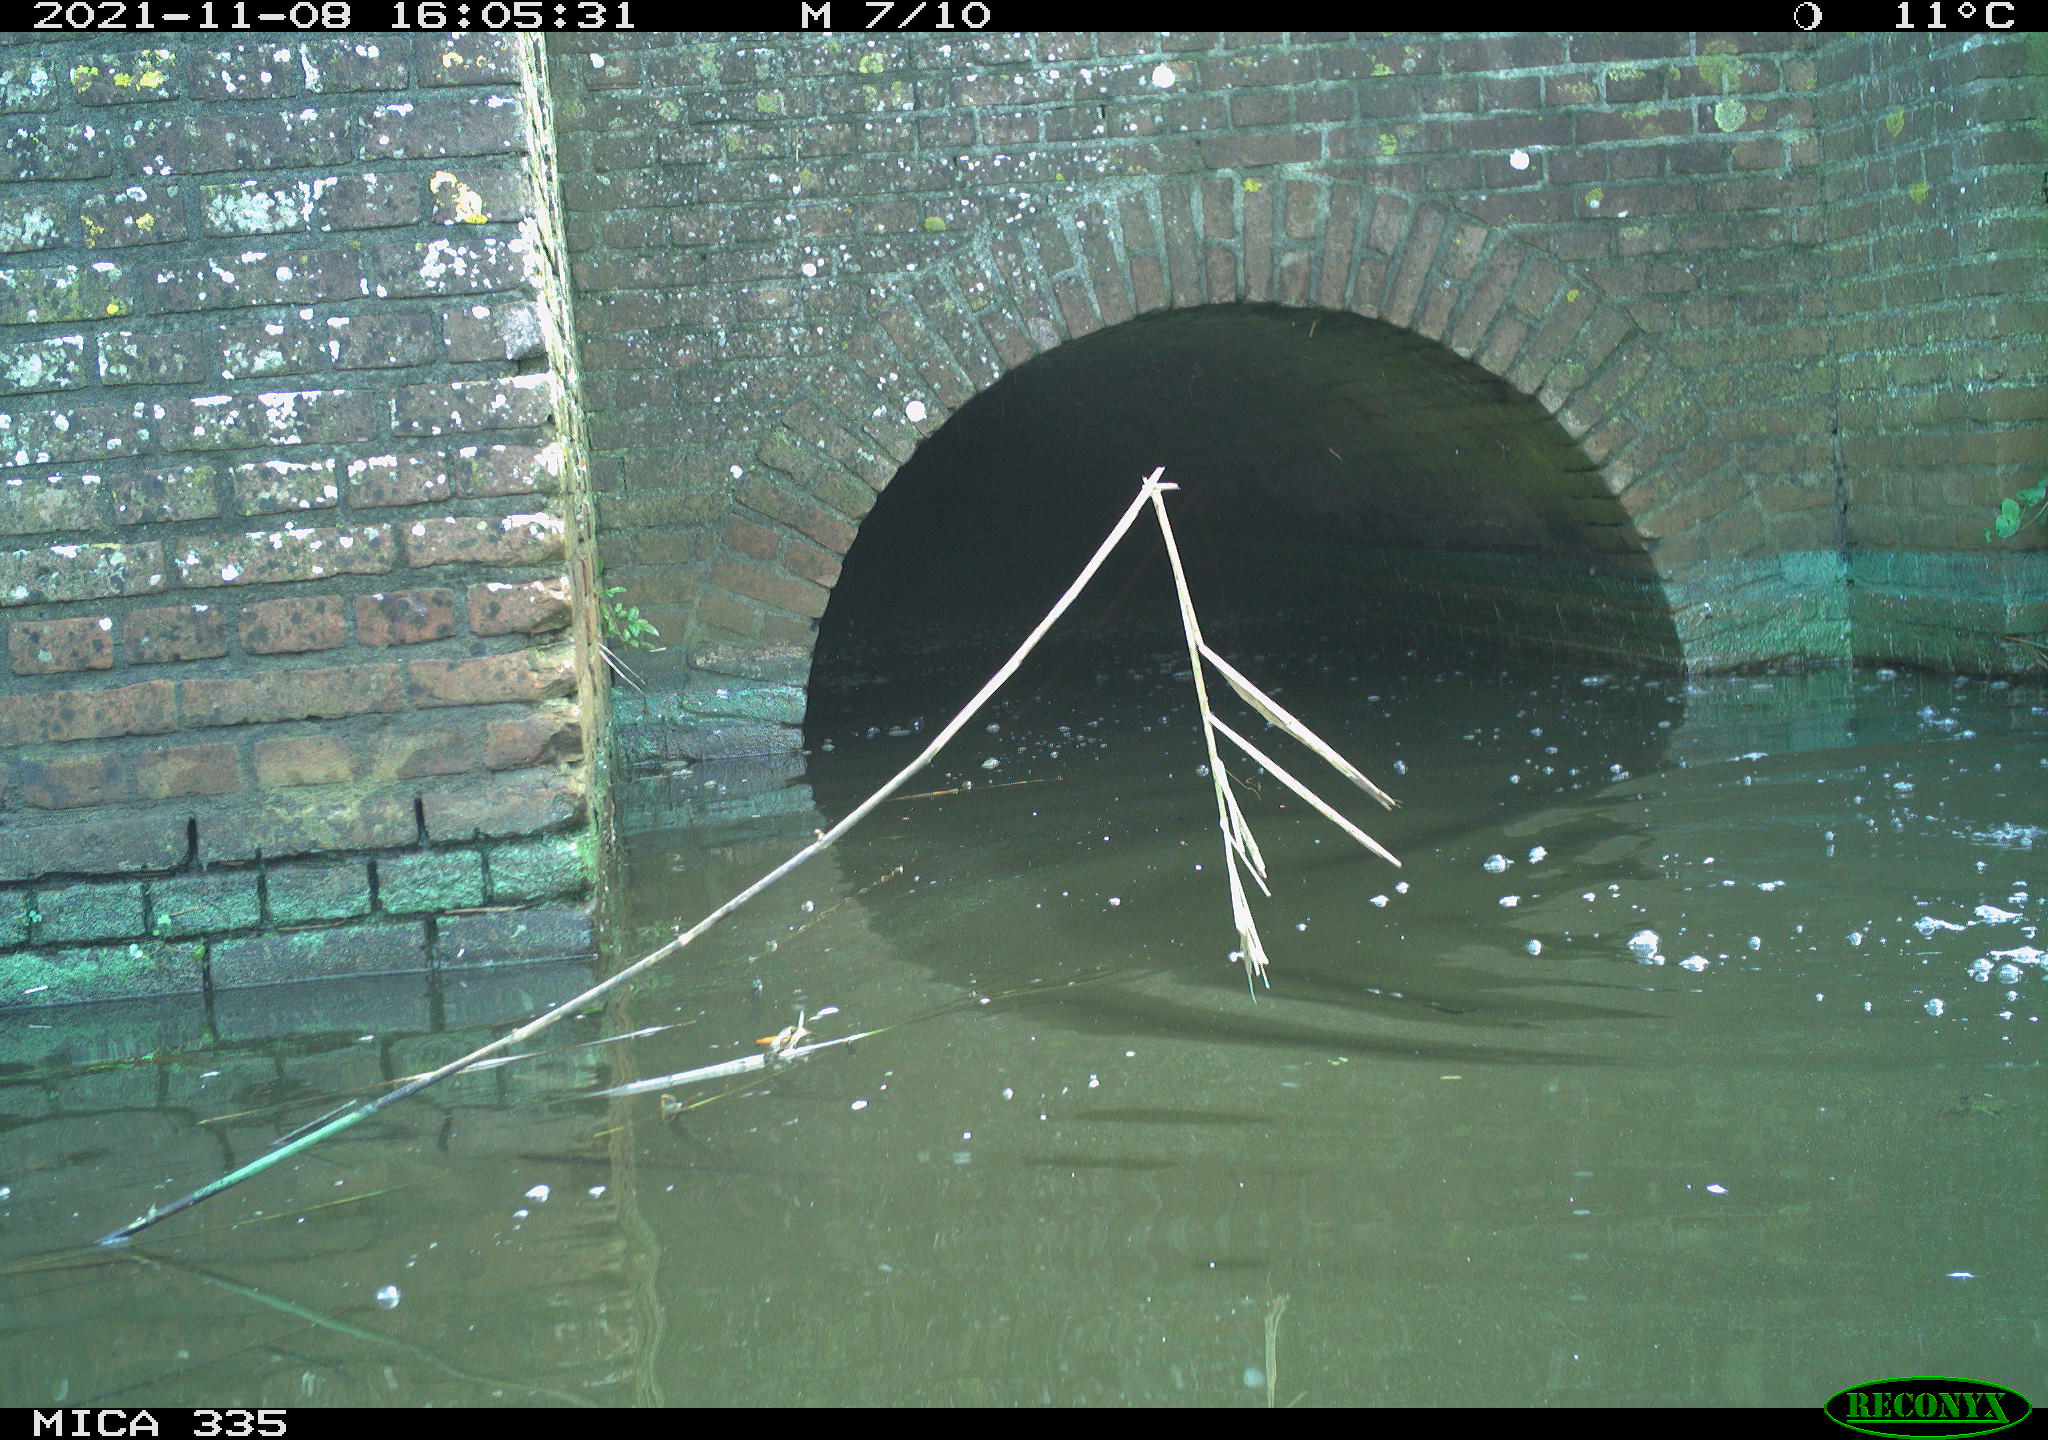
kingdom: Animalia
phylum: Chordata
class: Aves
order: Suliformes
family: Phalacrocoracidae
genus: Phalacrocorax
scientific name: Phalacrocorax carbo
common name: Great cormorant
